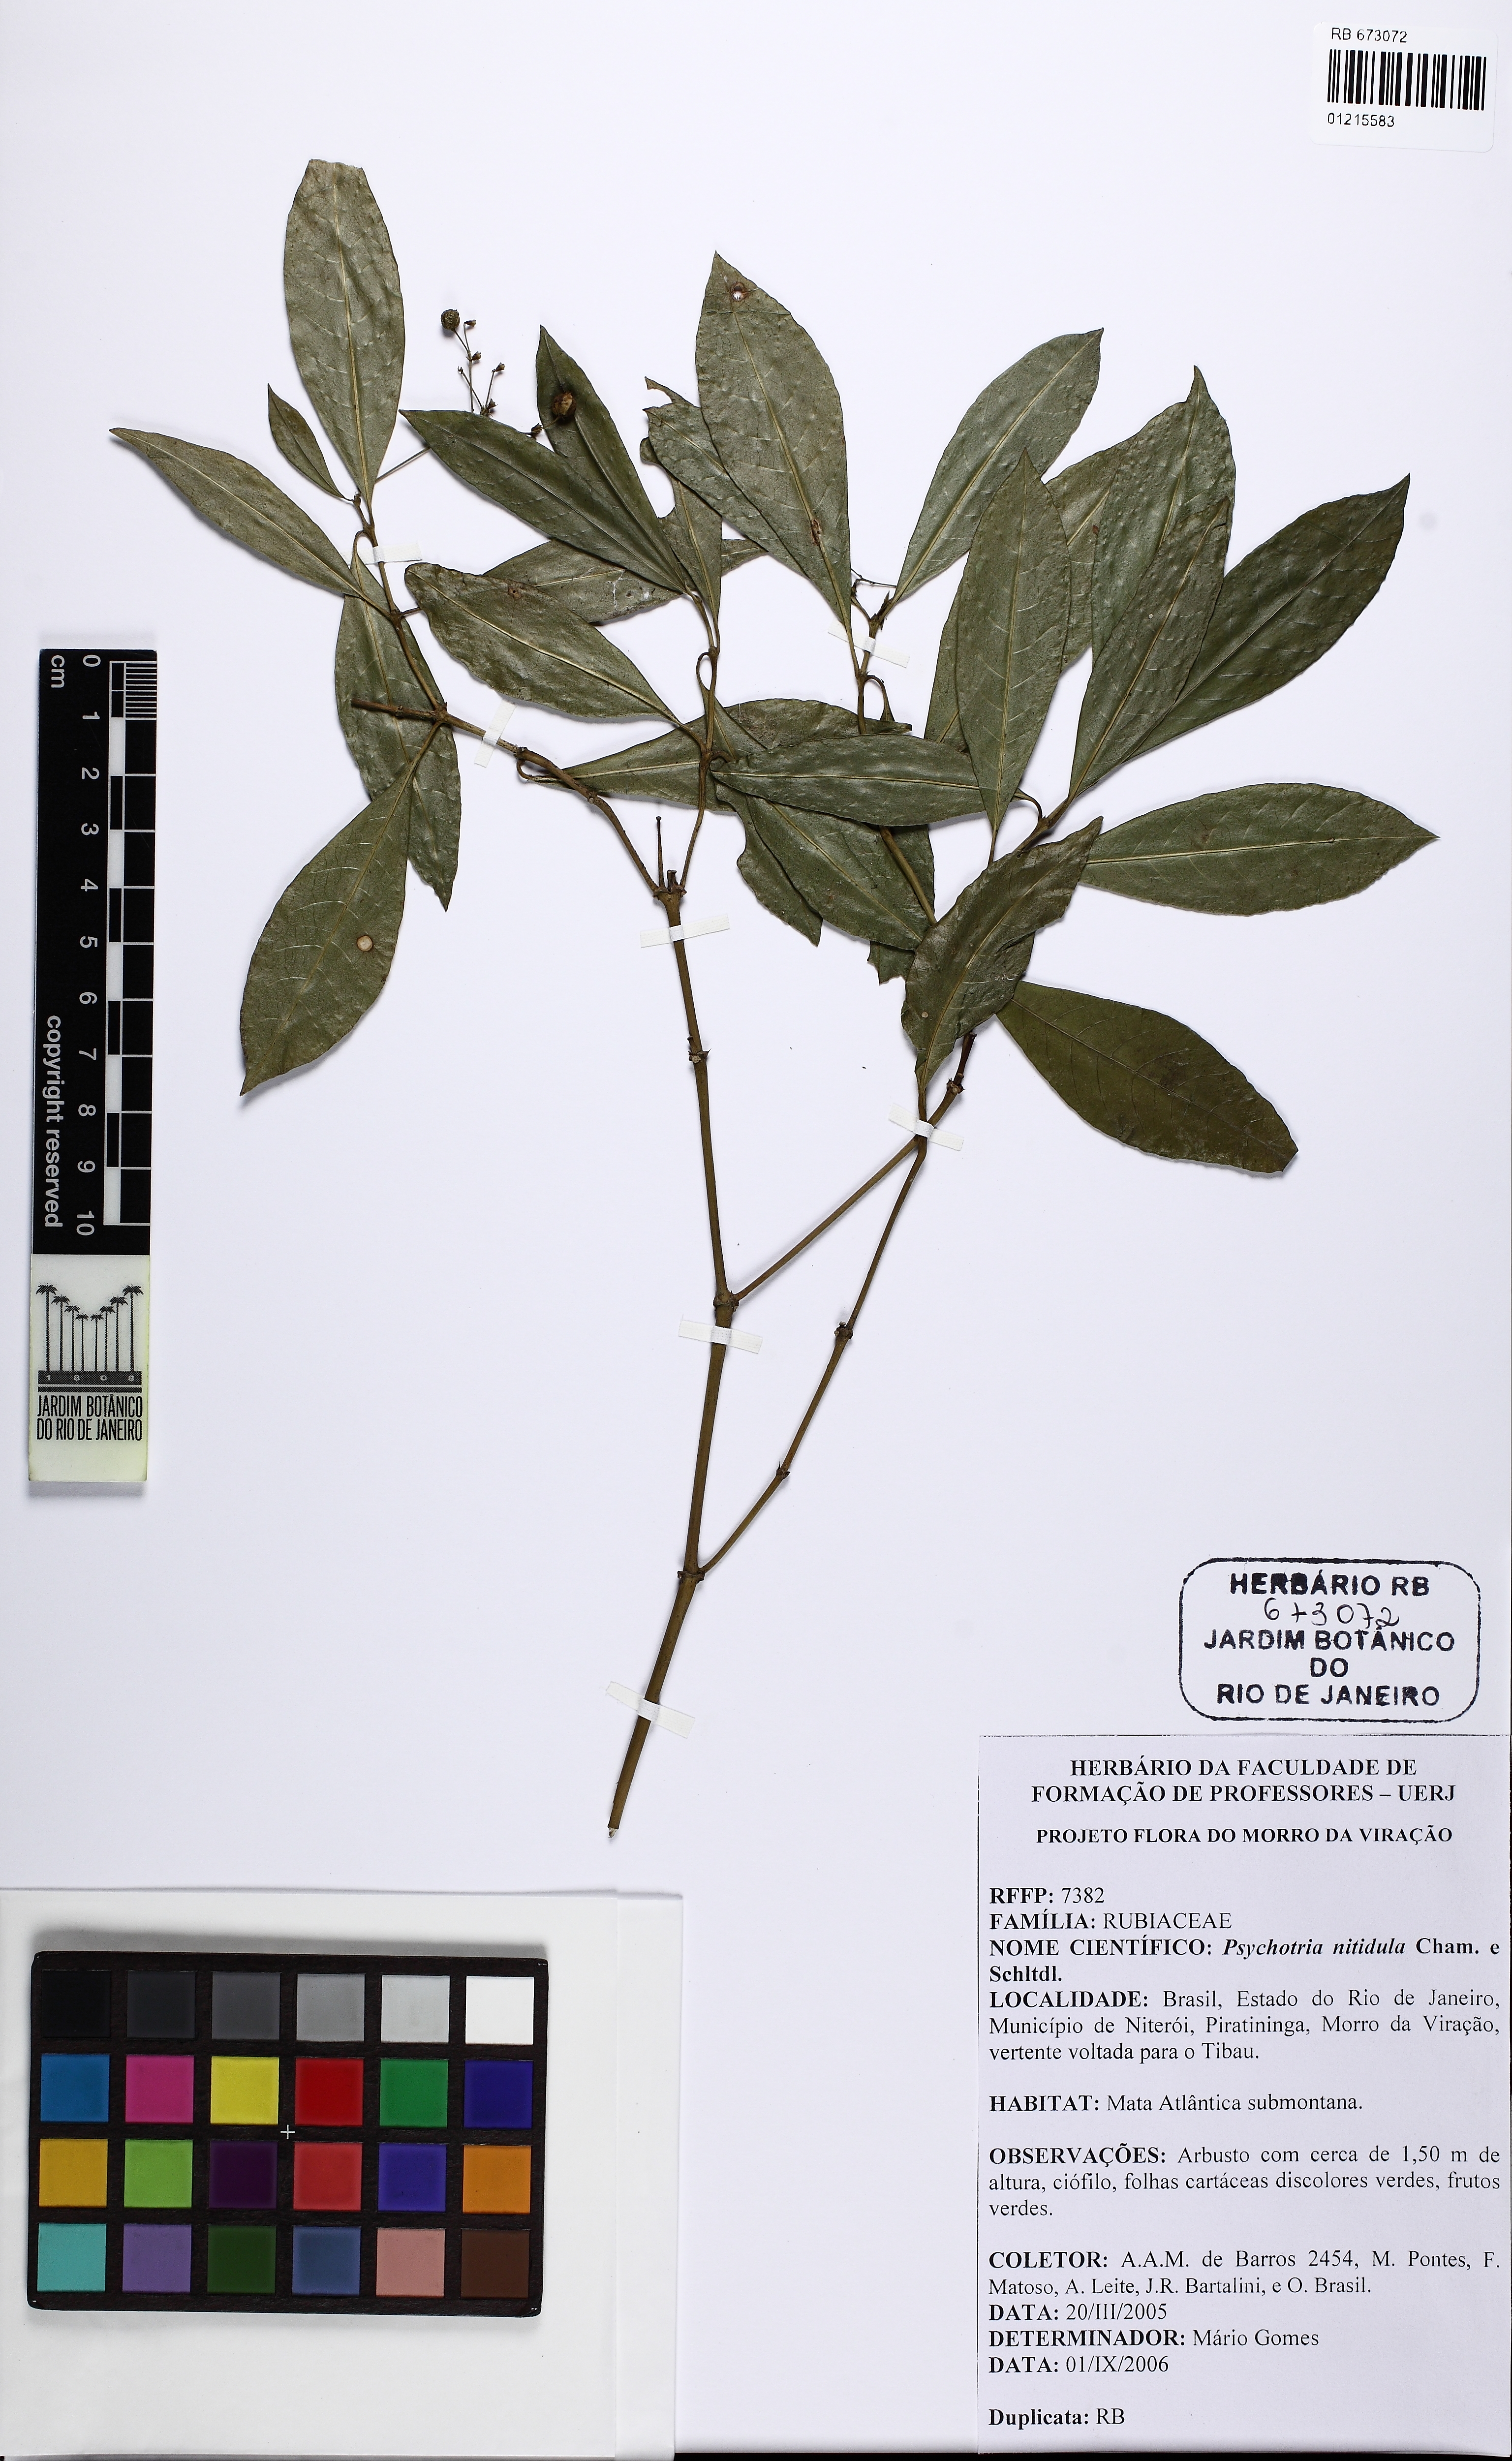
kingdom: Plantae
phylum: Tracheophyta
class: Magnoliopsida
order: Gentianales
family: Rubiaceae
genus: Psychotria
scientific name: Psychotria leiocarpa
